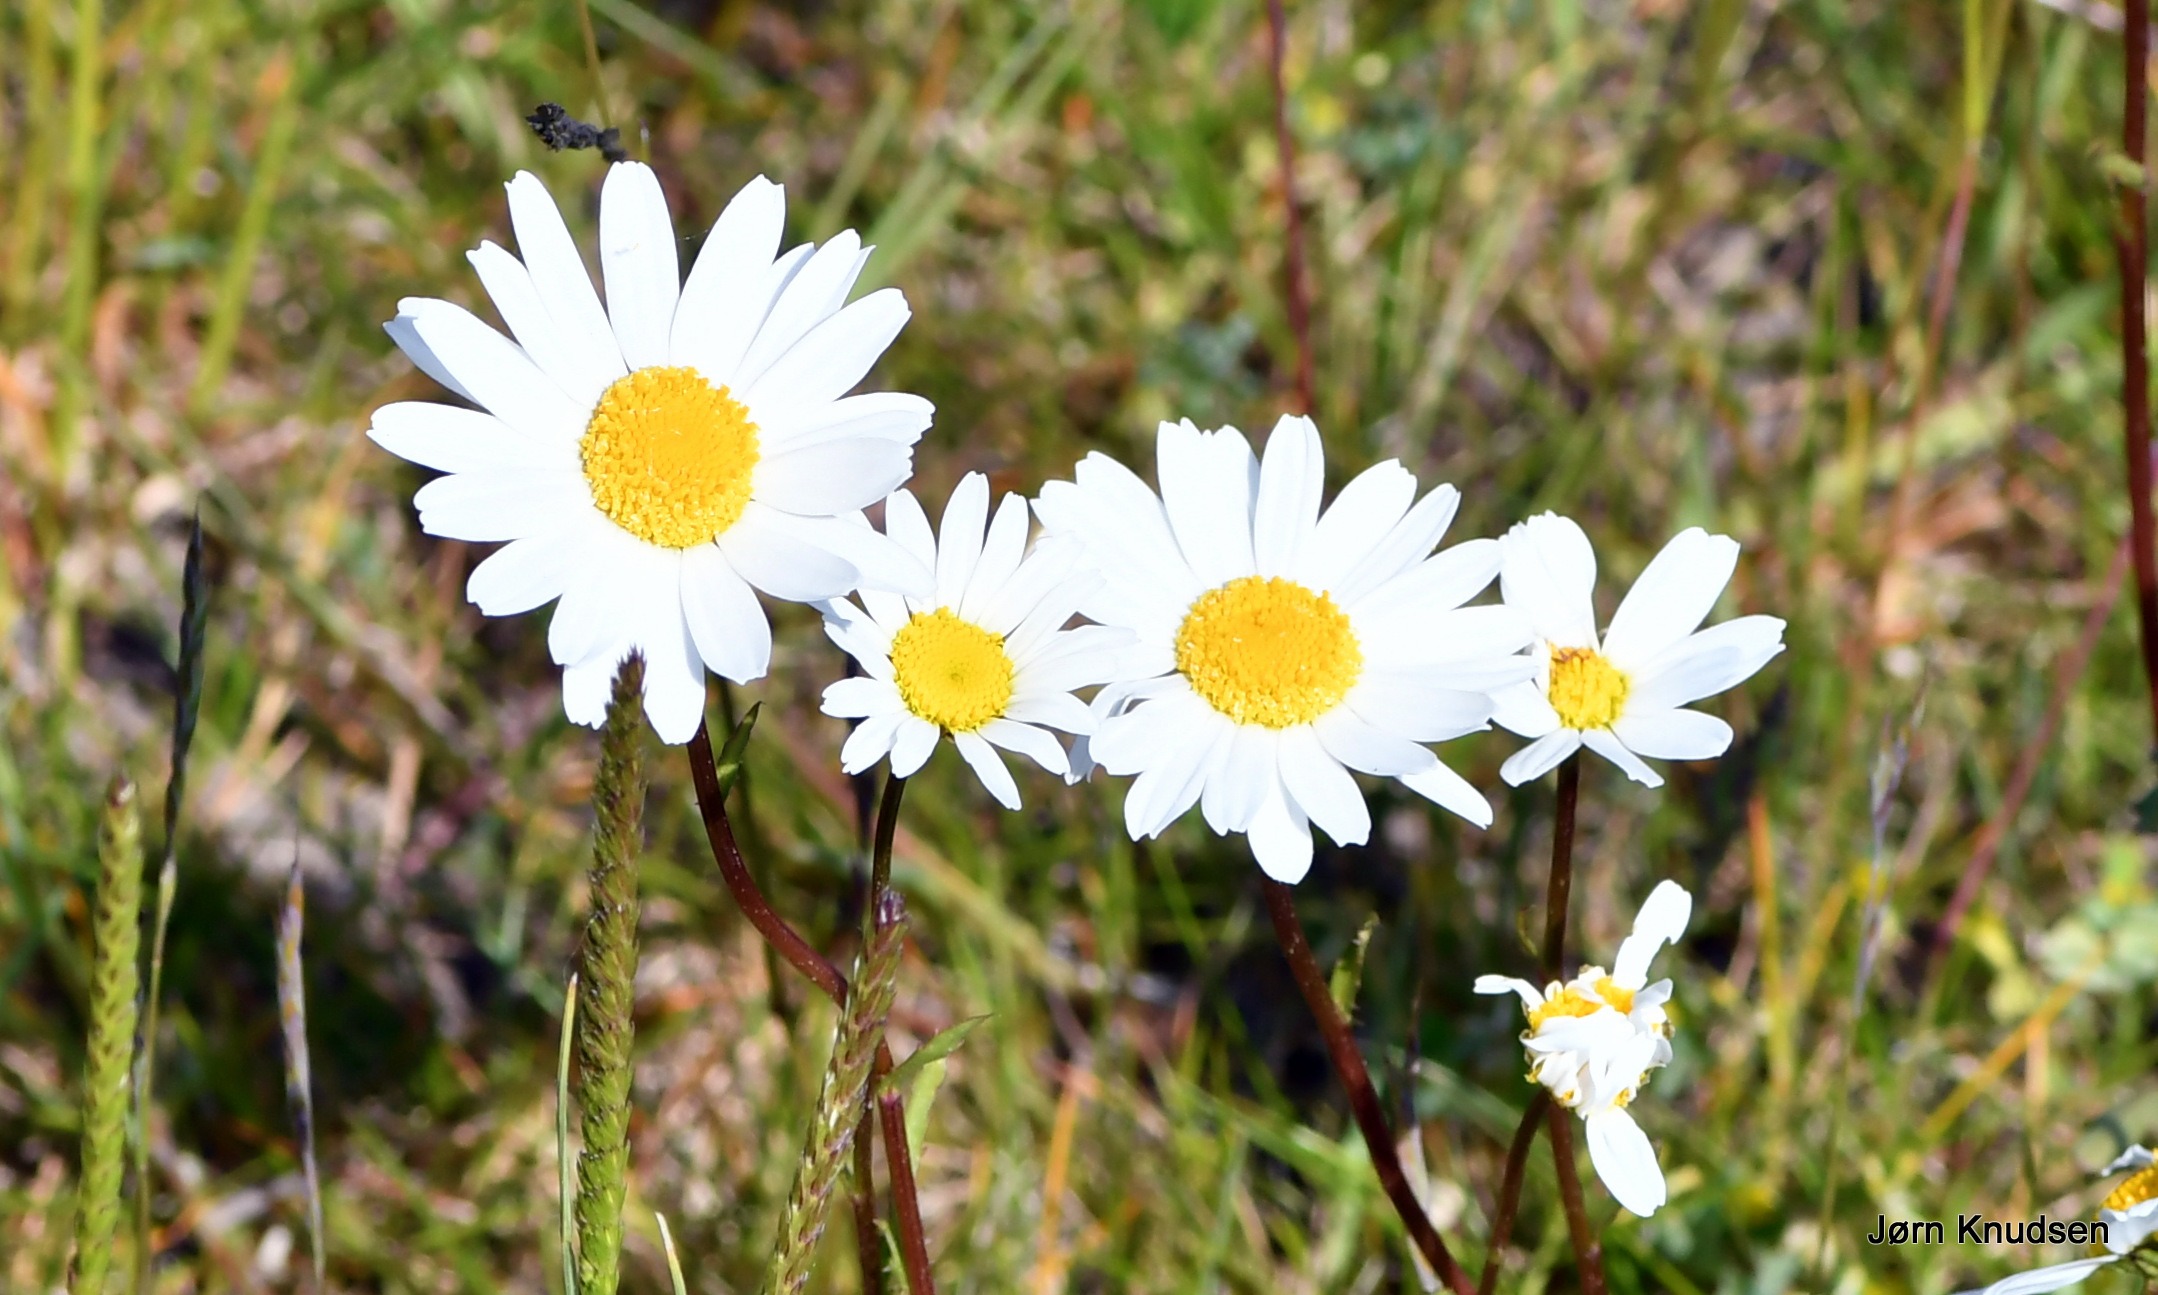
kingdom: Plantae
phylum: Tracheophyta
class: Magnoliopsida
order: Asterales
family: Asteraceae
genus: Leucanthemum
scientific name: Leucanthemum vulgare
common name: Hvid okseøje
